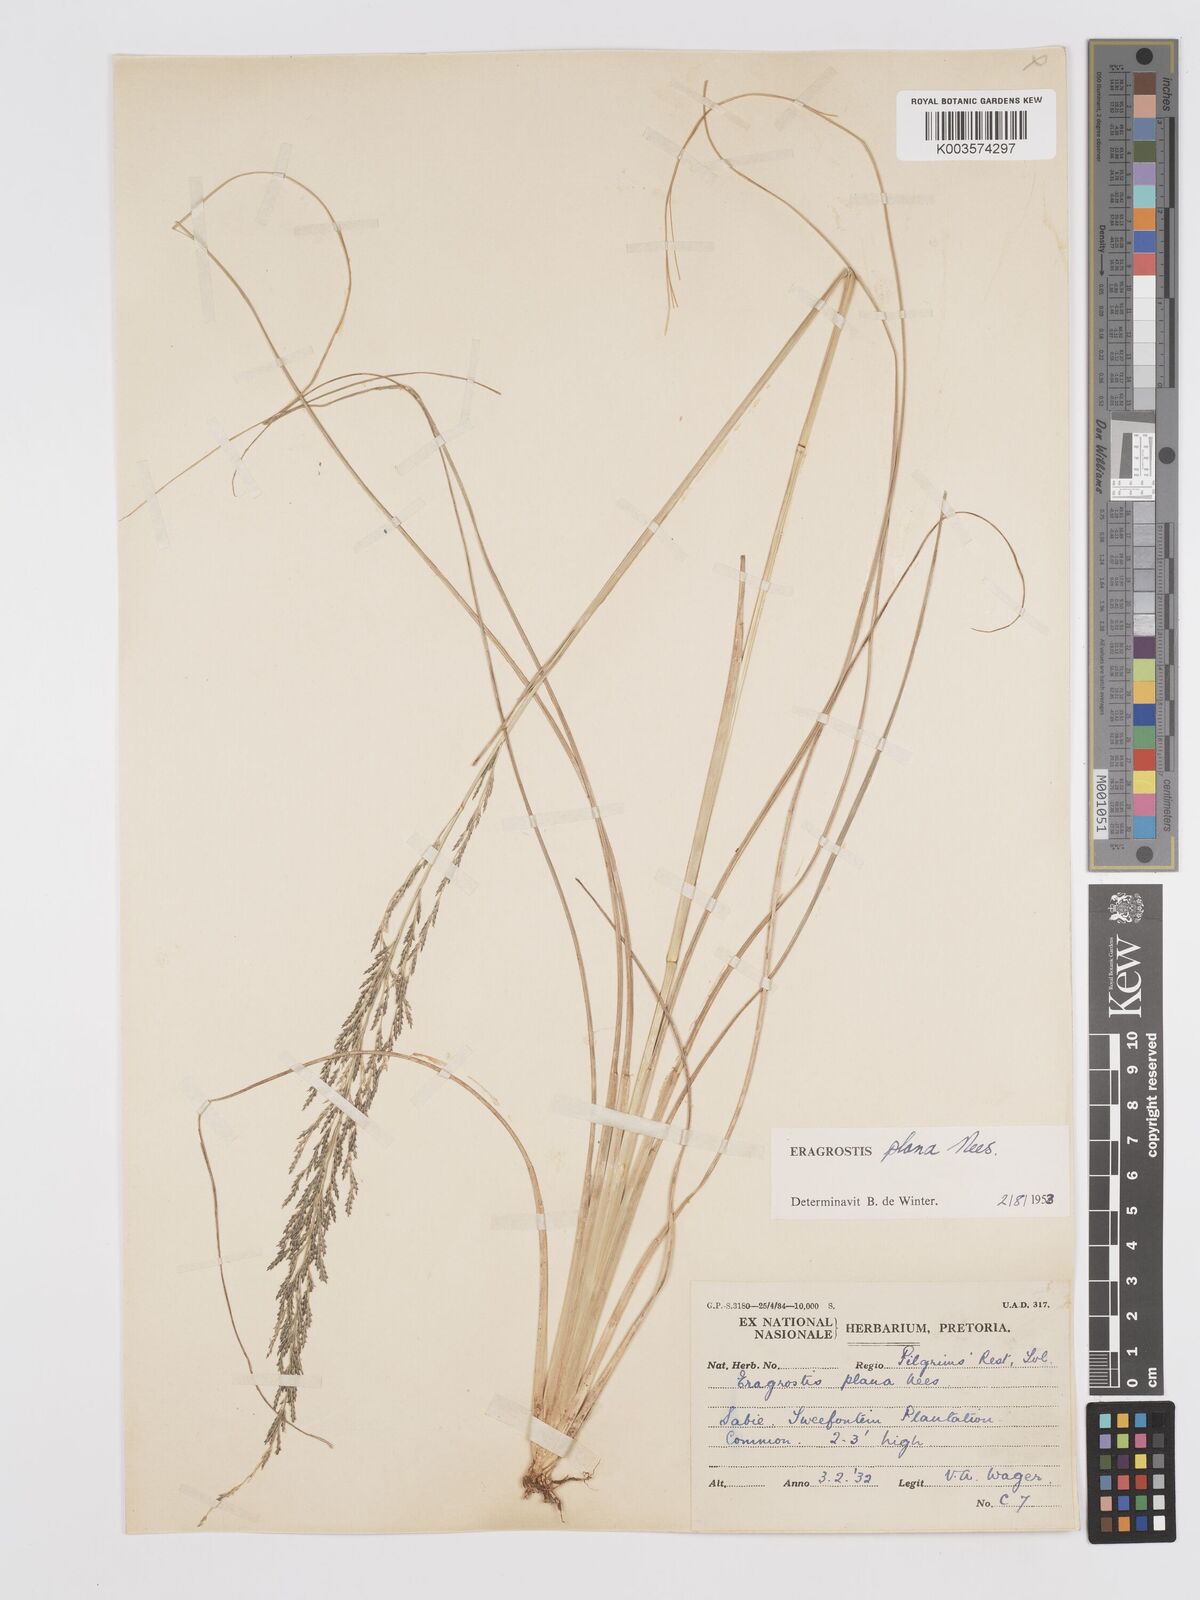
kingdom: Plantae
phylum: Tracheophyta
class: Liliopsida
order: Poales
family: Poaceae
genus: Eragrostis
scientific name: Eragrostis plana
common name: South african lovegrass
